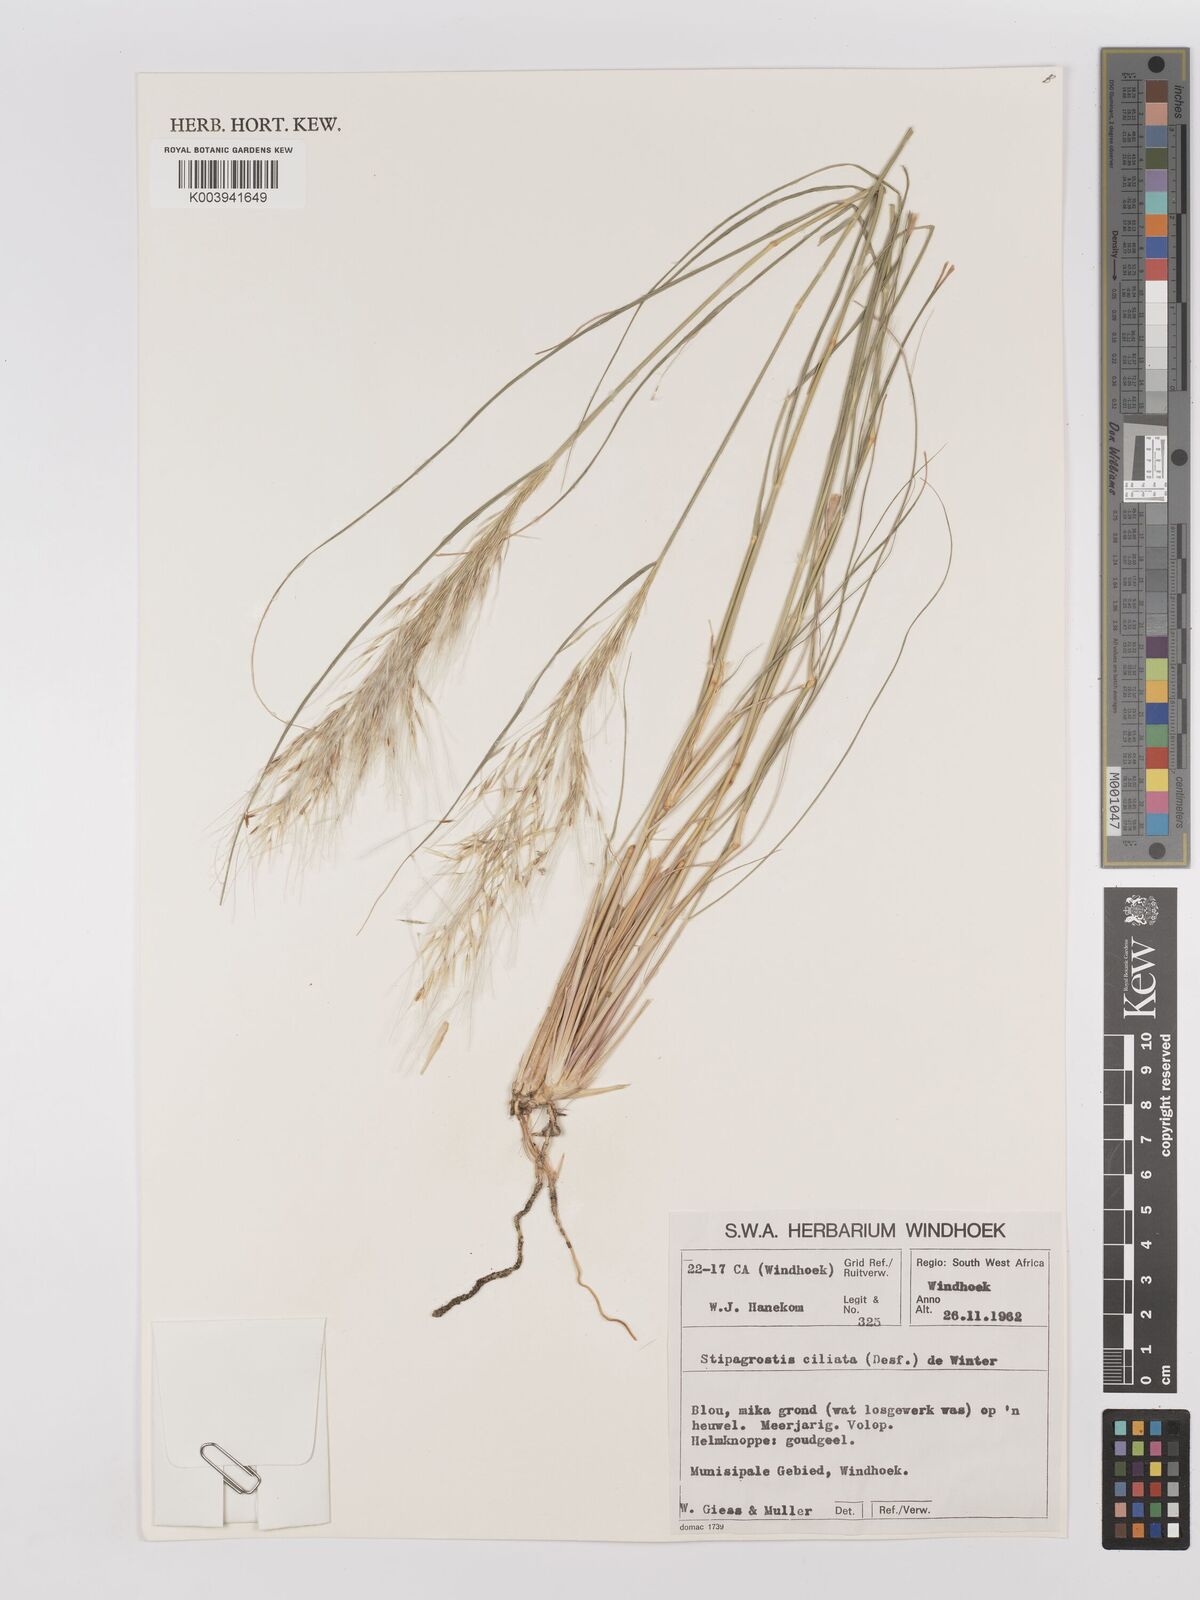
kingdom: Plantae
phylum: Tracheophyta
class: Liliopsida
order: Poales
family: Poaceae
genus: Stipagrostis
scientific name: Stipagrostis ciliata
